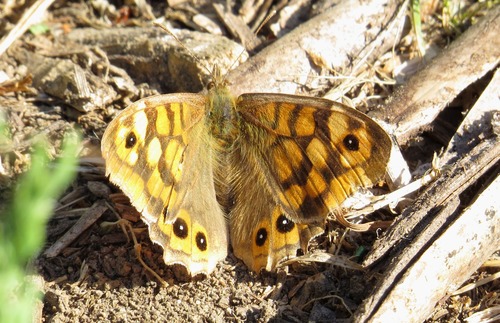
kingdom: Animalia
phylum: Arthropoda
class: Insecta
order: Lepidoptera
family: Nymphalidae
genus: Pararge
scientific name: Pararge aegeria
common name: Speckled wood
